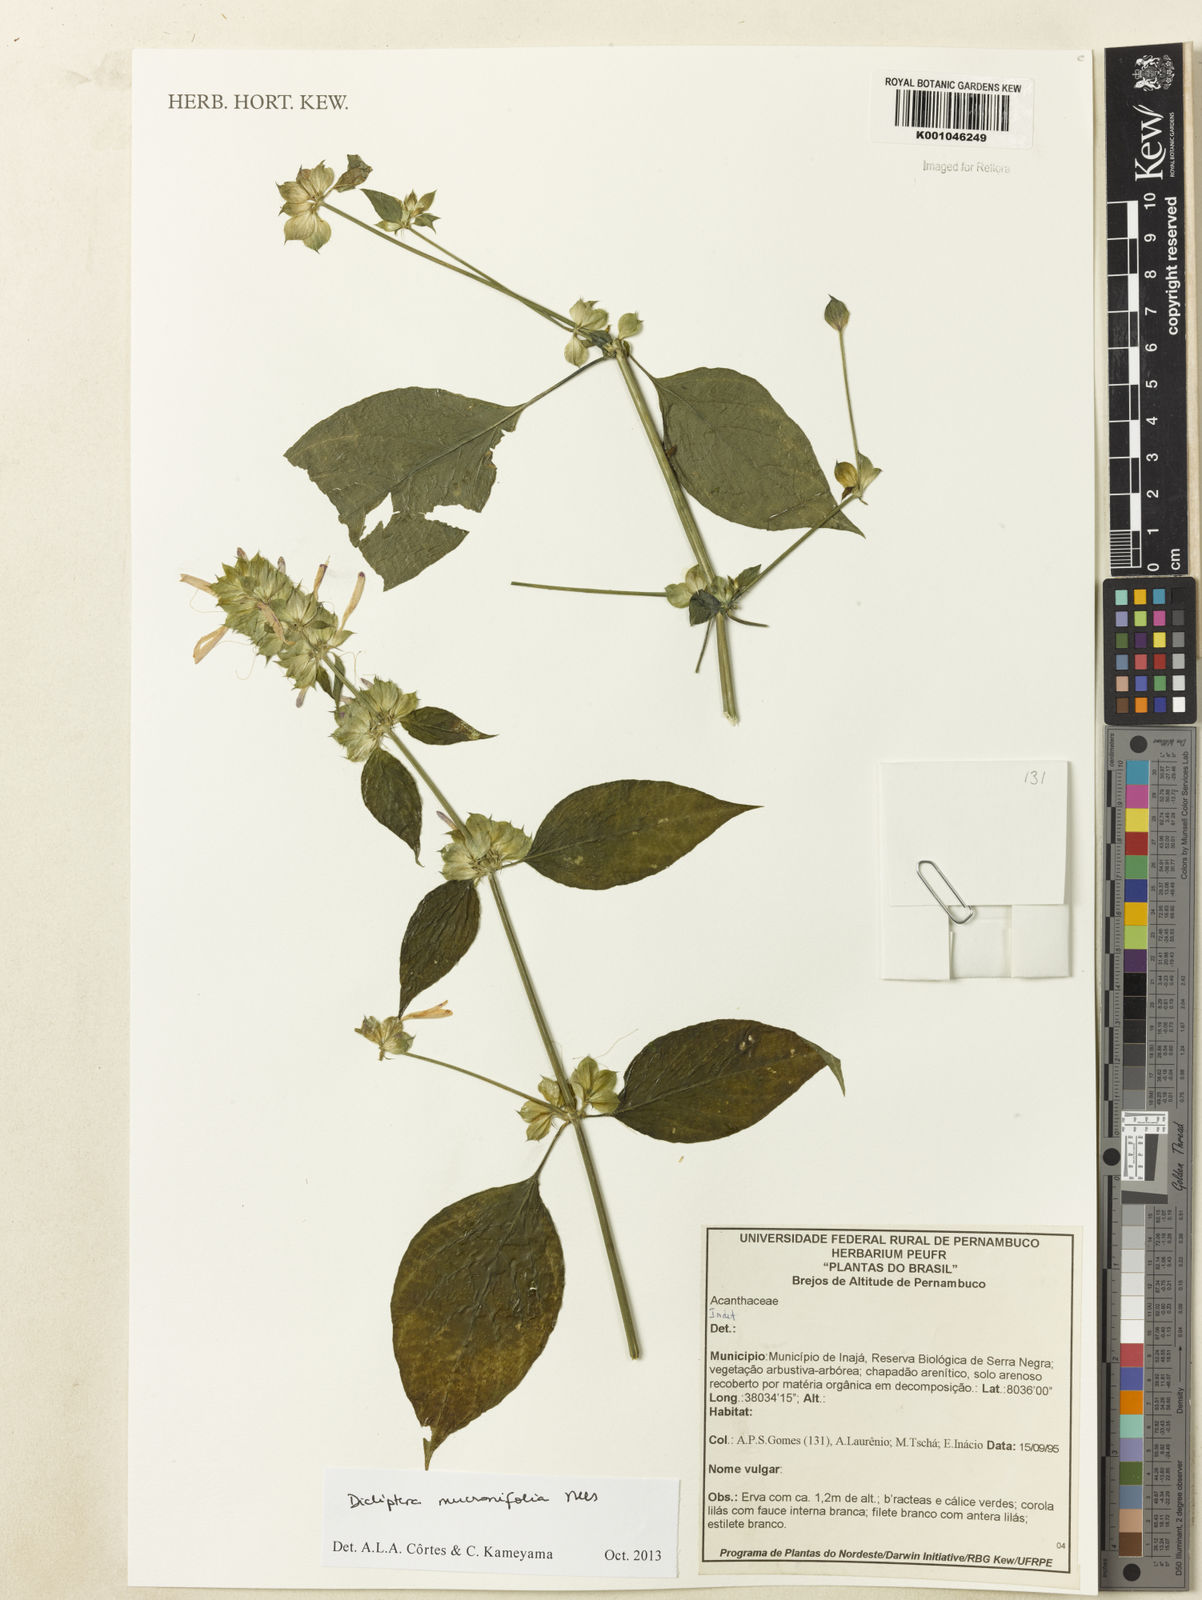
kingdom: Plantae
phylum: Tracheophyta
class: Magnoliopsida
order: Lamiales
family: Acanthaceae
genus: Dicliptera
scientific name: Dicliptera mucronifolia
